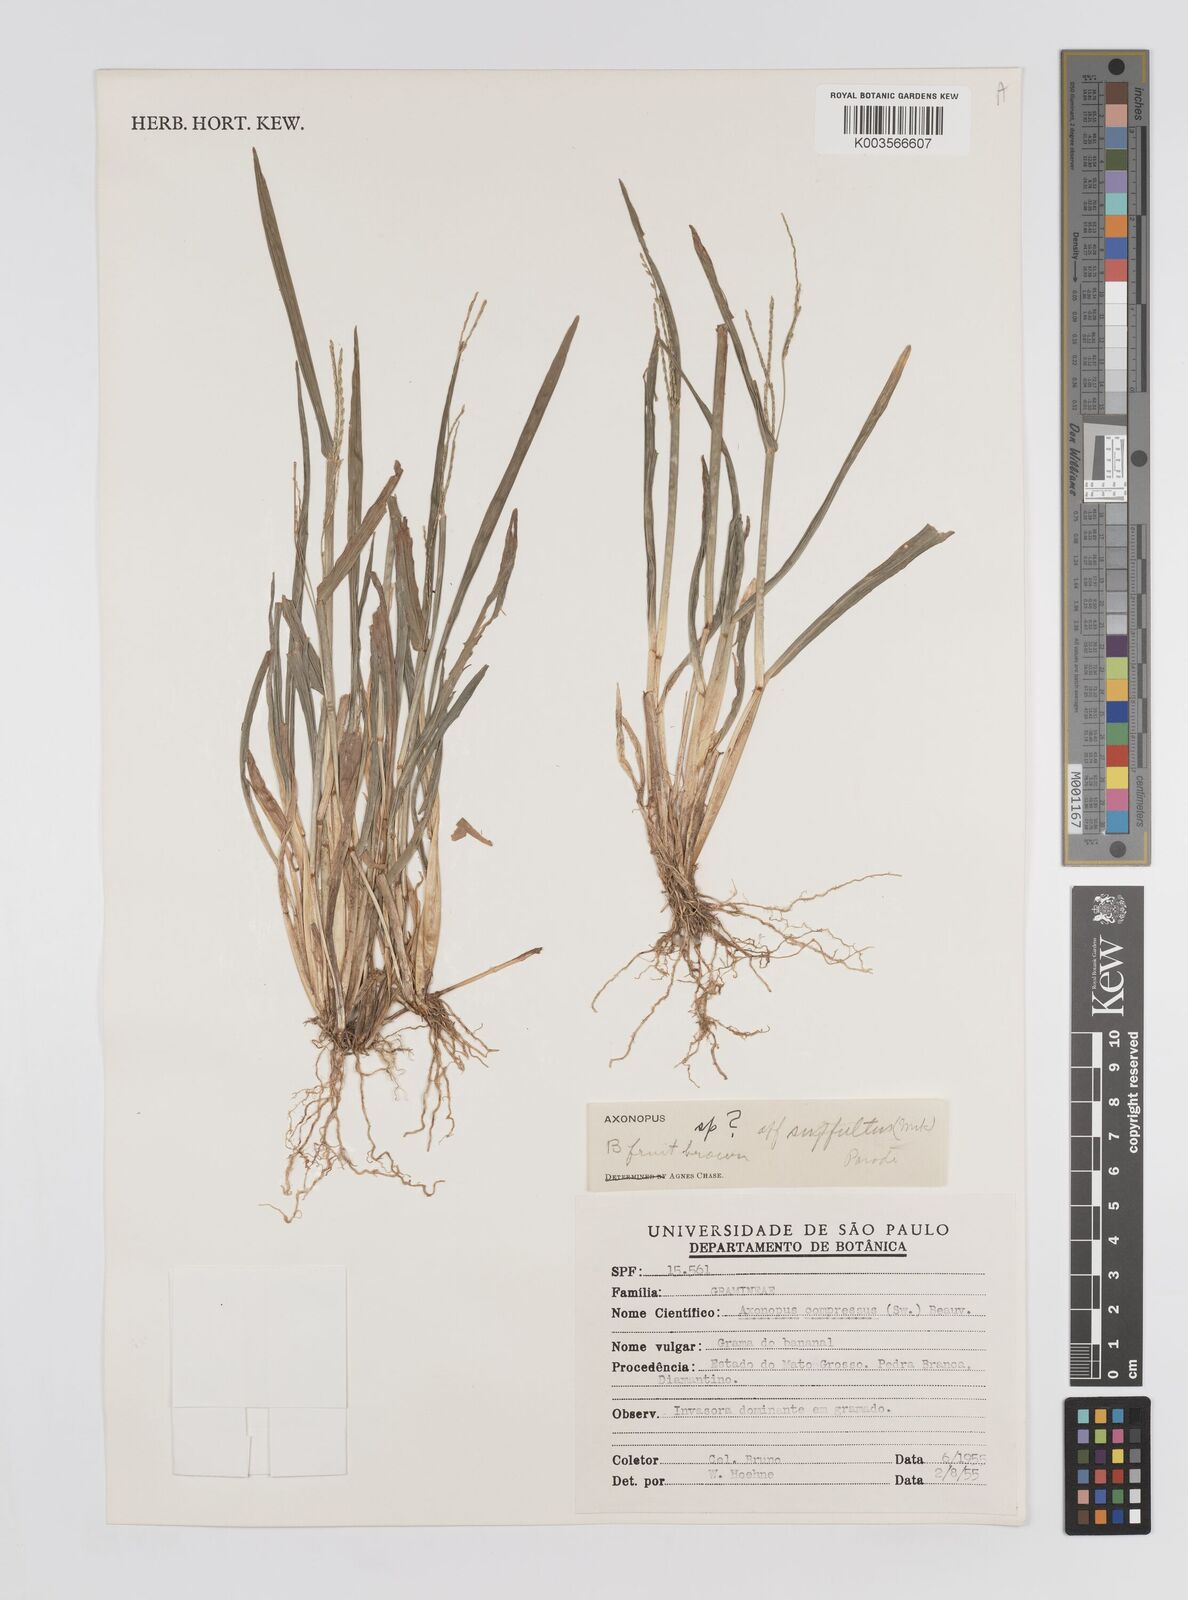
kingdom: Plantae
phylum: Tracheophyta
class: Liliopsida
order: Poales
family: Poaceae
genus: Axonopus
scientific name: Axonopus compressus
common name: American carpet grass
